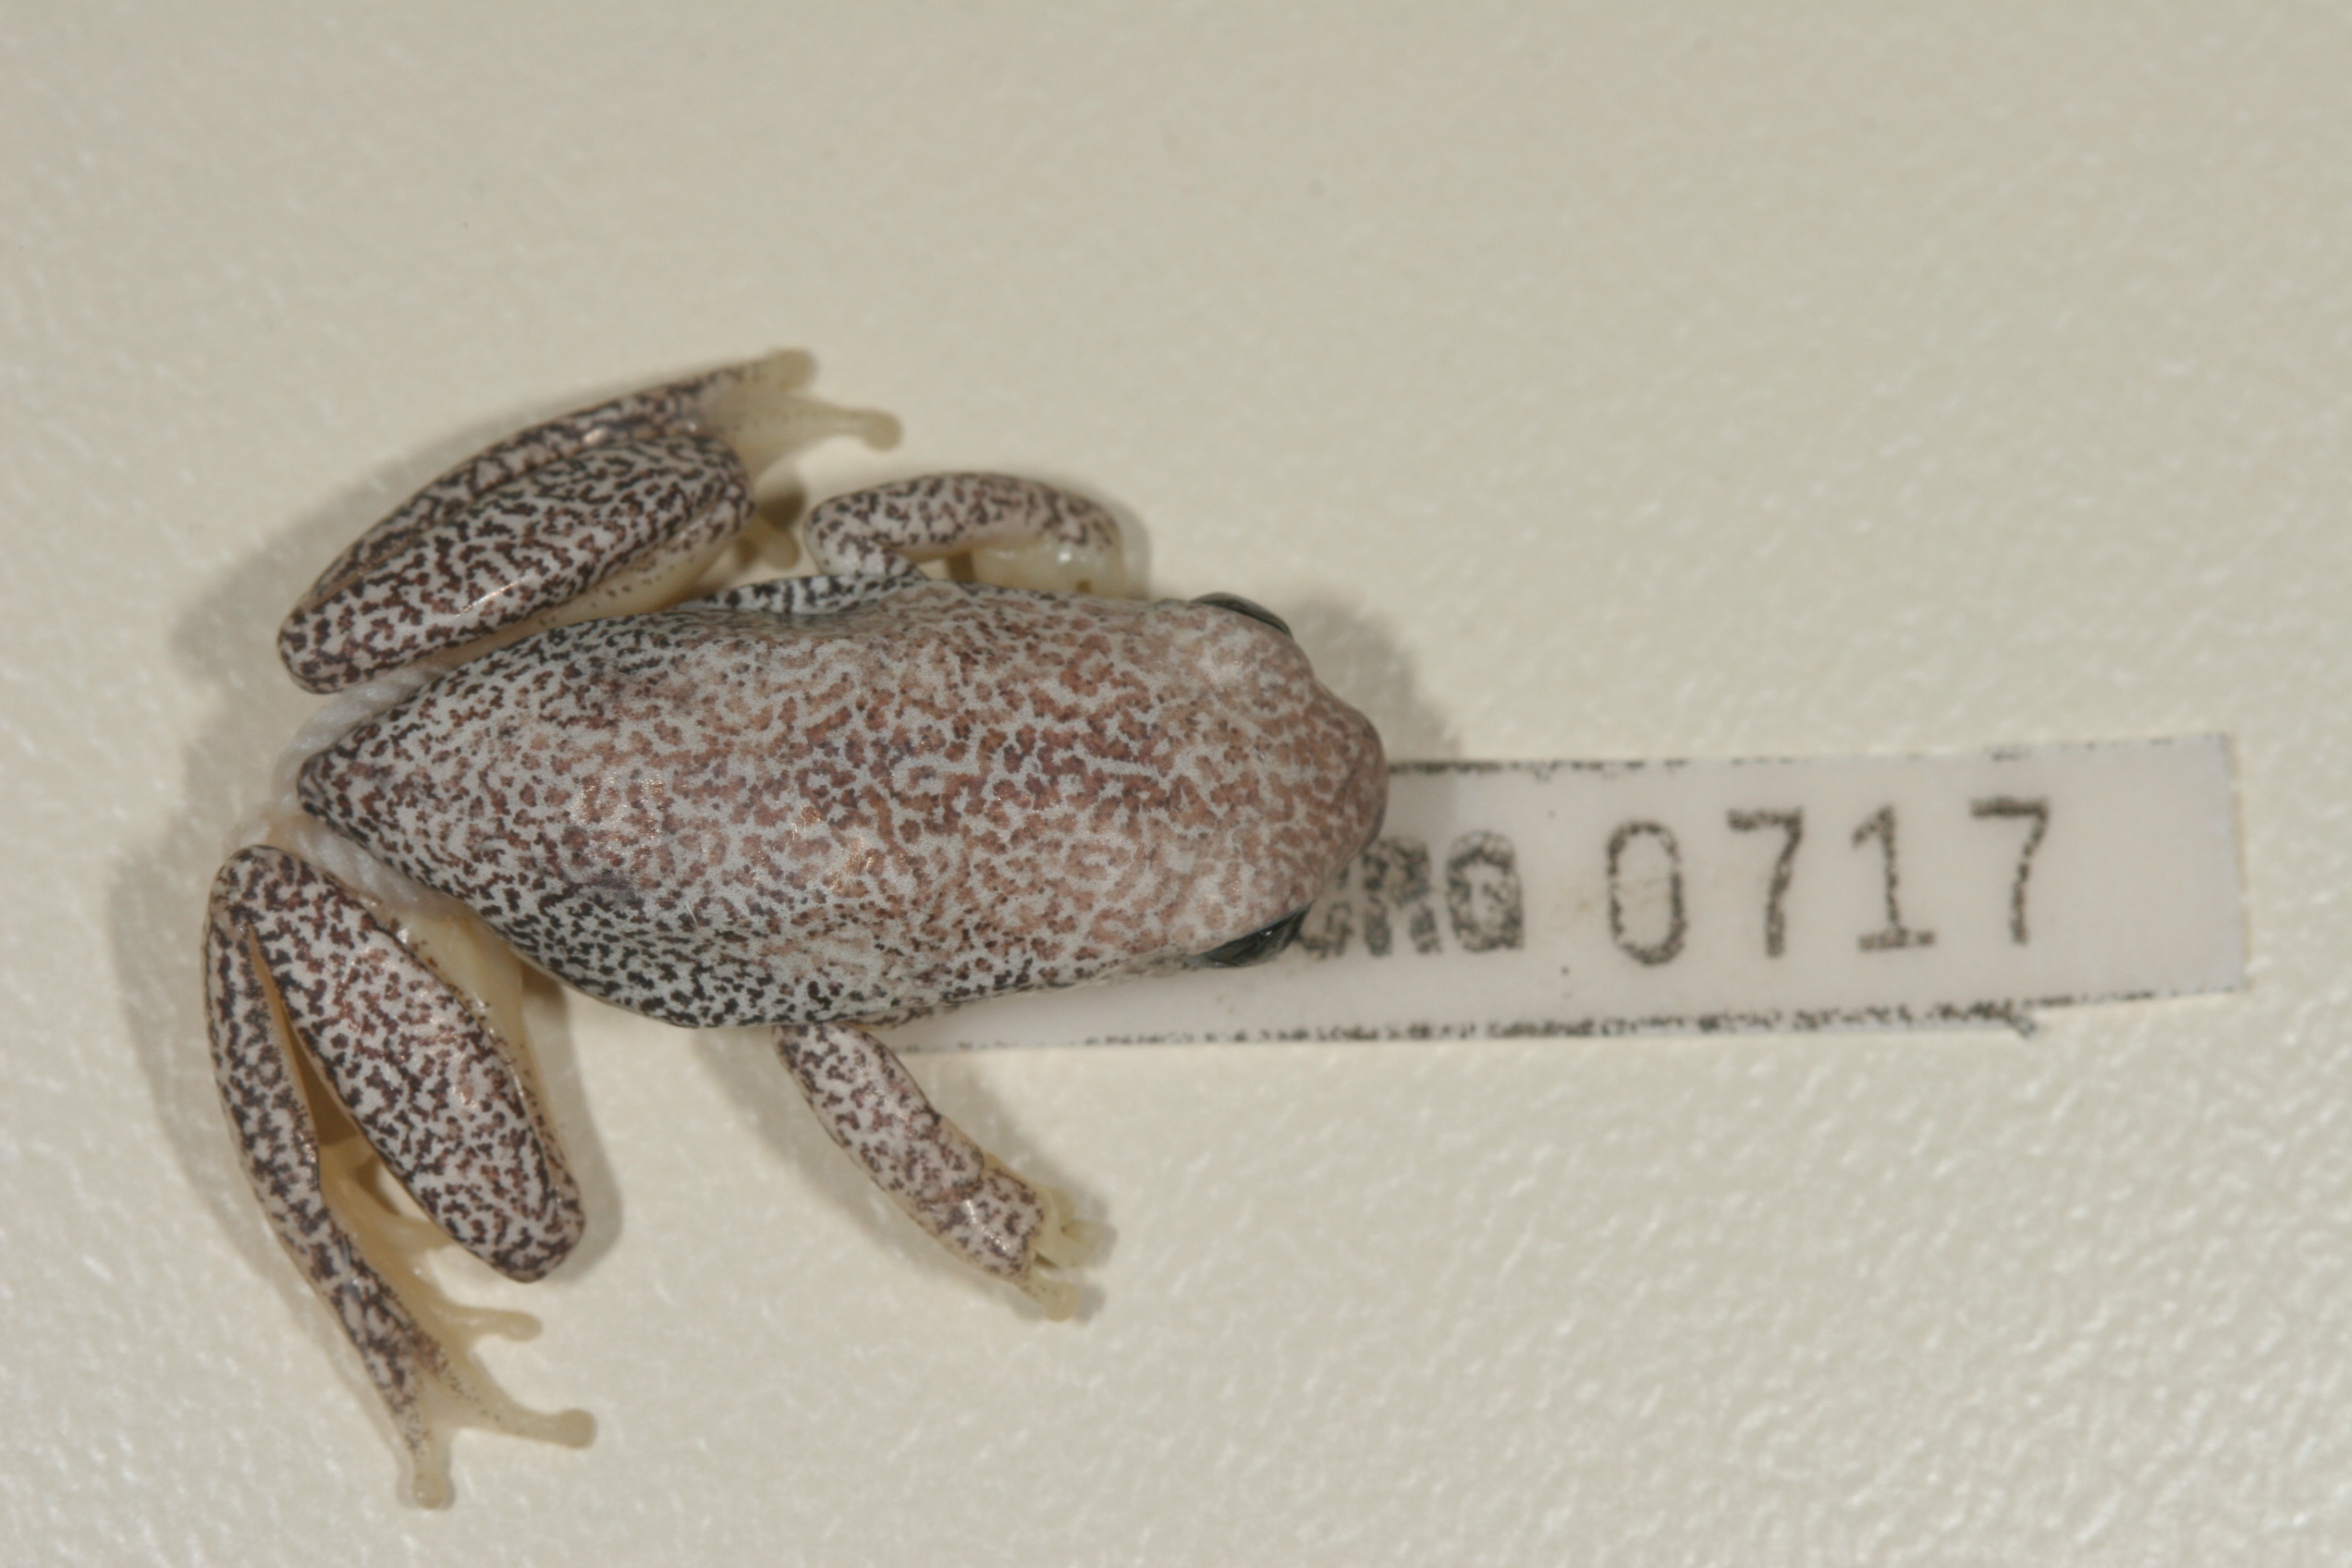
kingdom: Animalia
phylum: Chordata
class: Amphibia
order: Anura
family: Hyperoliidae
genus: Hyperolius
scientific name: Hyperolius parallelus
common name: Angolan reed frog
